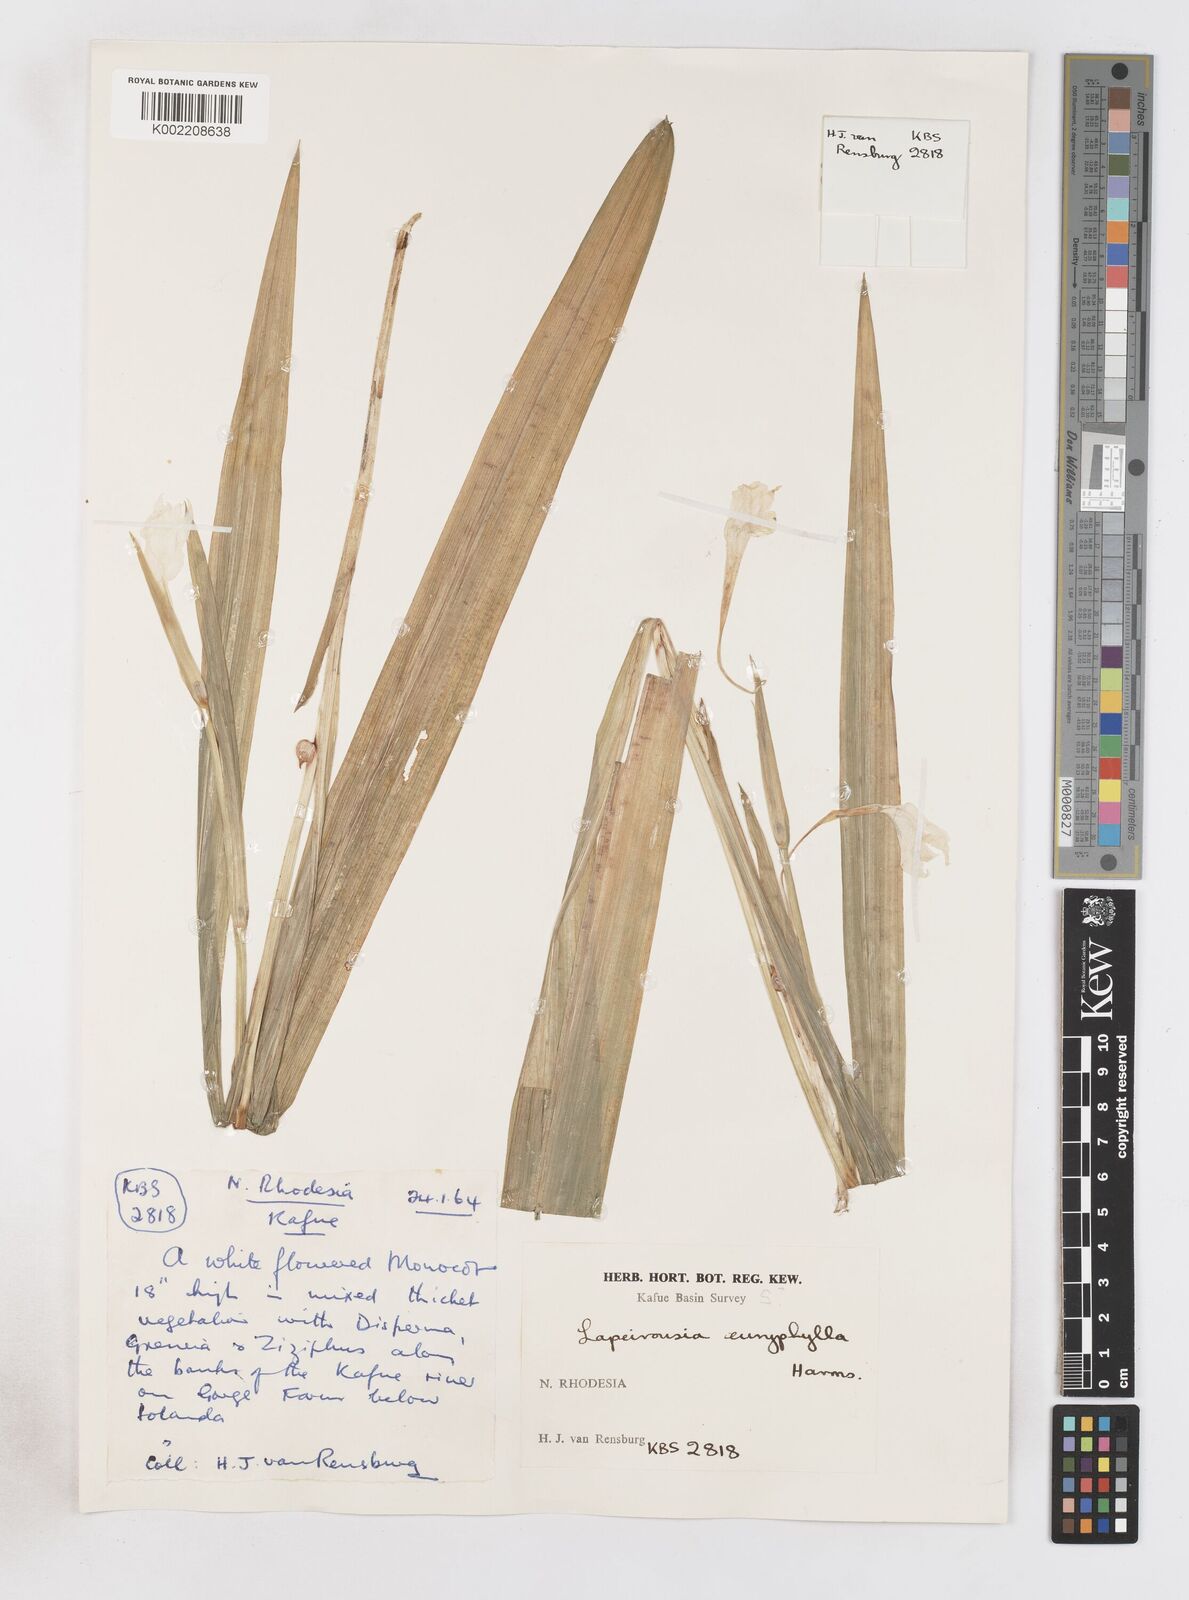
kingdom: Plantae
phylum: Tracheophyta
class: Liliopsida
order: Asparagales
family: Iridaceae
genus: Savannosiphon
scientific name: Savannosiphon euryphylla
